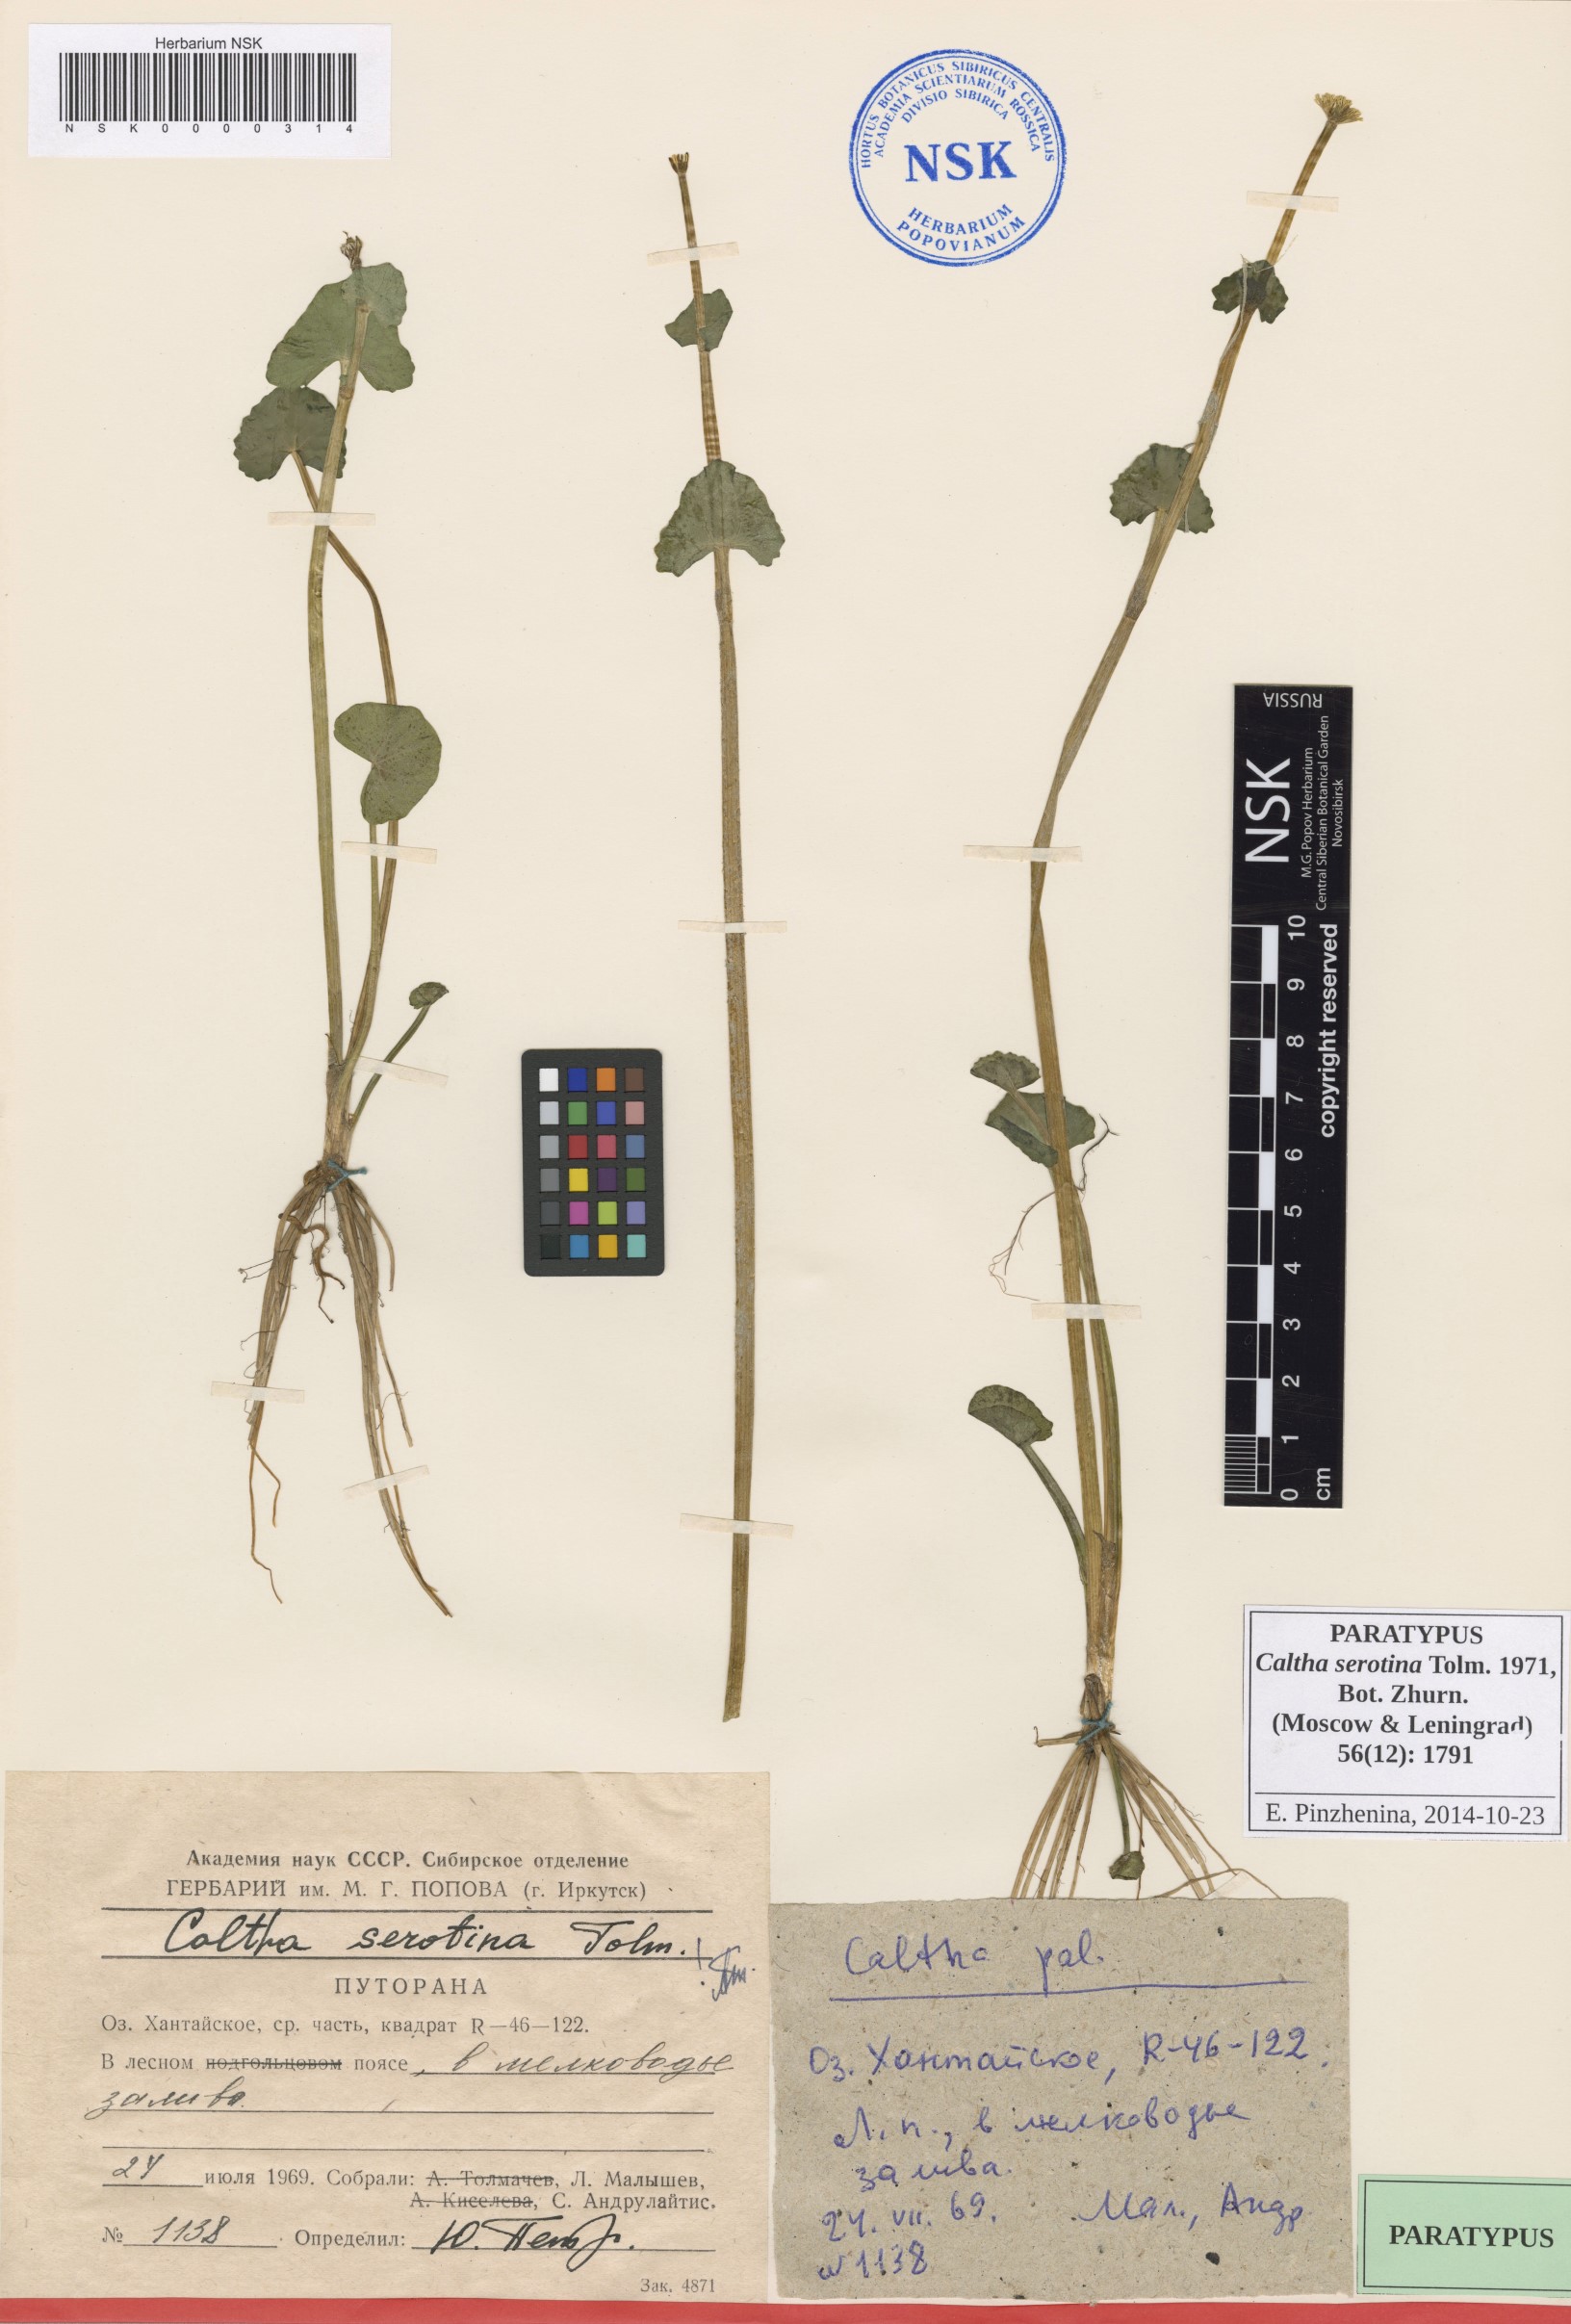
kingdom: Plantae
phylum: Tracheophyta
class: Magnoliopsida
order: Ranunculales
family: Ranunculaceae
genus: Caltha
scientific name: Caltha palustris
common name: Marsh marigold
